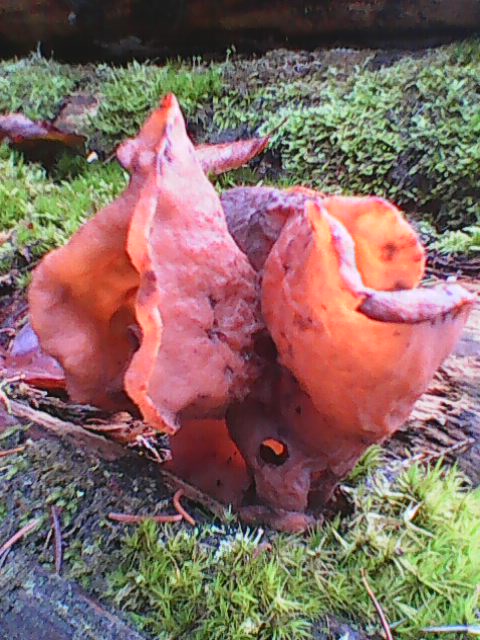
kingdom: Fungi
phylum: Ascomycota
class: Pezizomycetes
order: Pezizales
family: Discinaceae
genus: Gyromitra
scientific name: Gyromitra infula
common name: bispehue-stenmorkel
